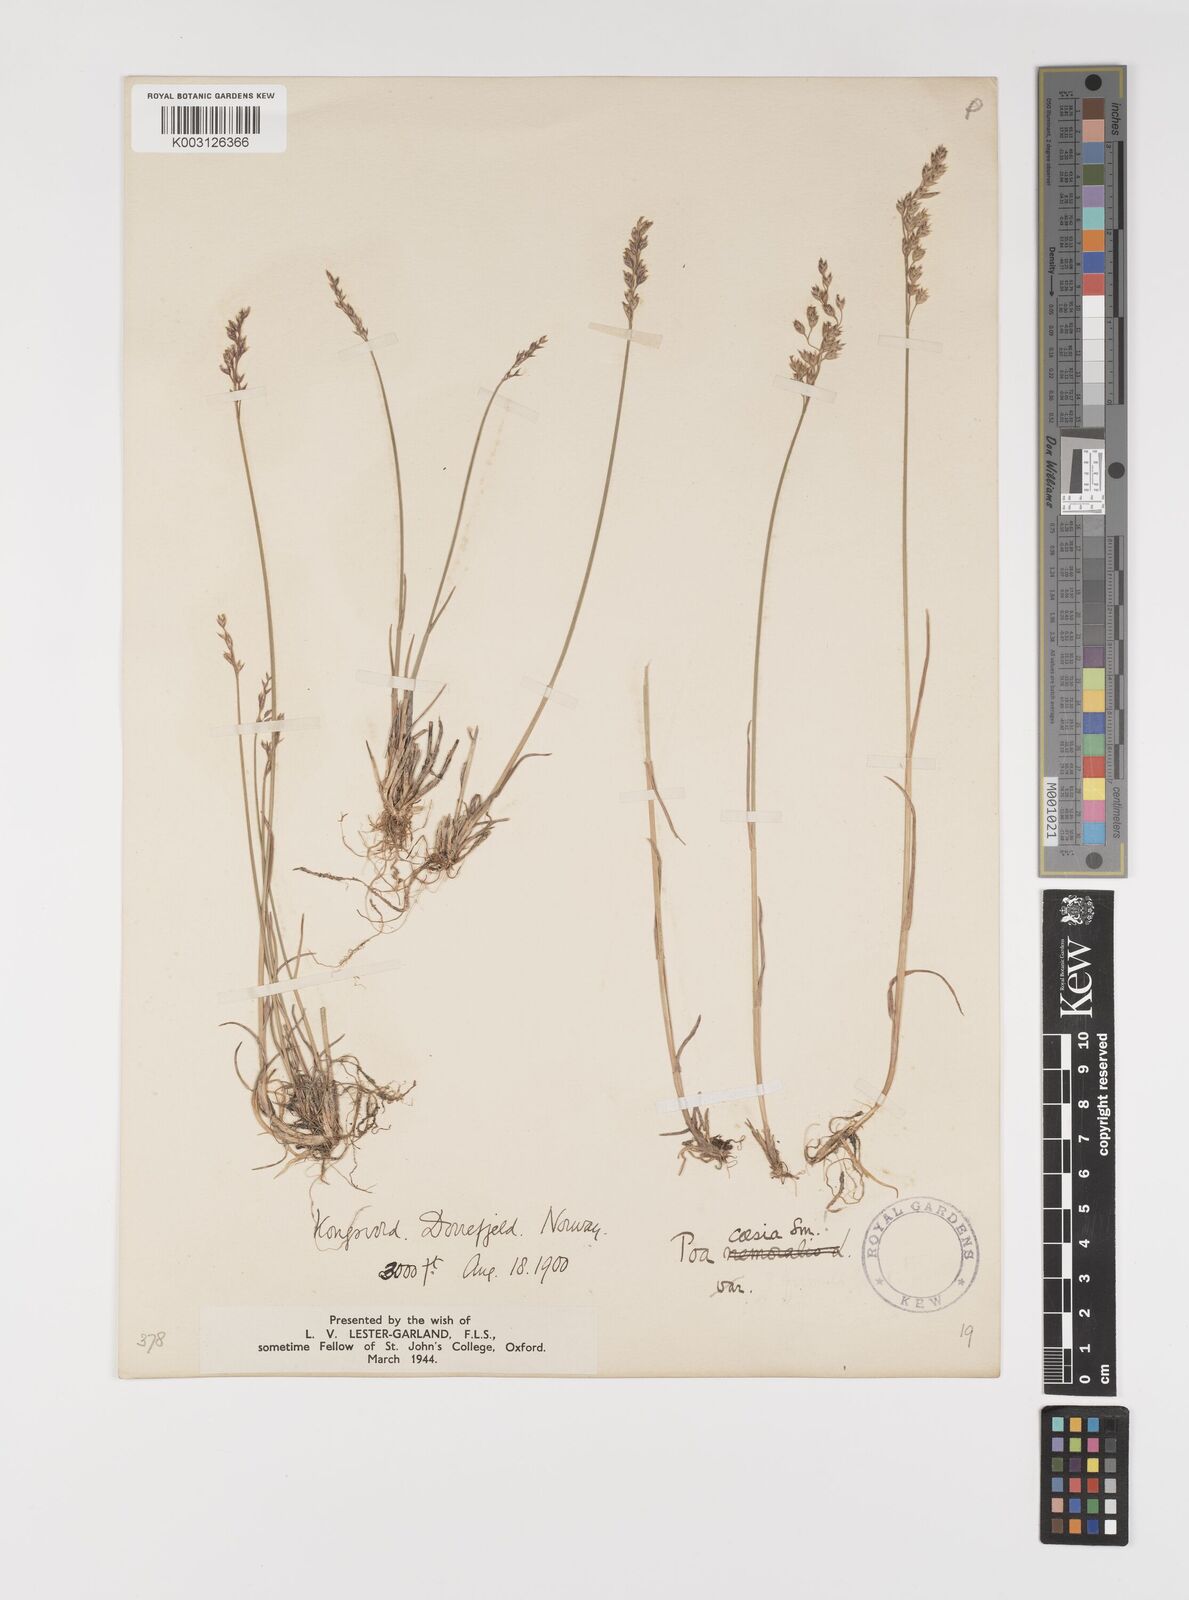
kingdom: Plantae
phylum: Tracheophyta
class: Liliopsida
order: Poales
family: Poaceae
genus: Poa
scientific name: Poa glauca
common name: Glaucous bluegrass
